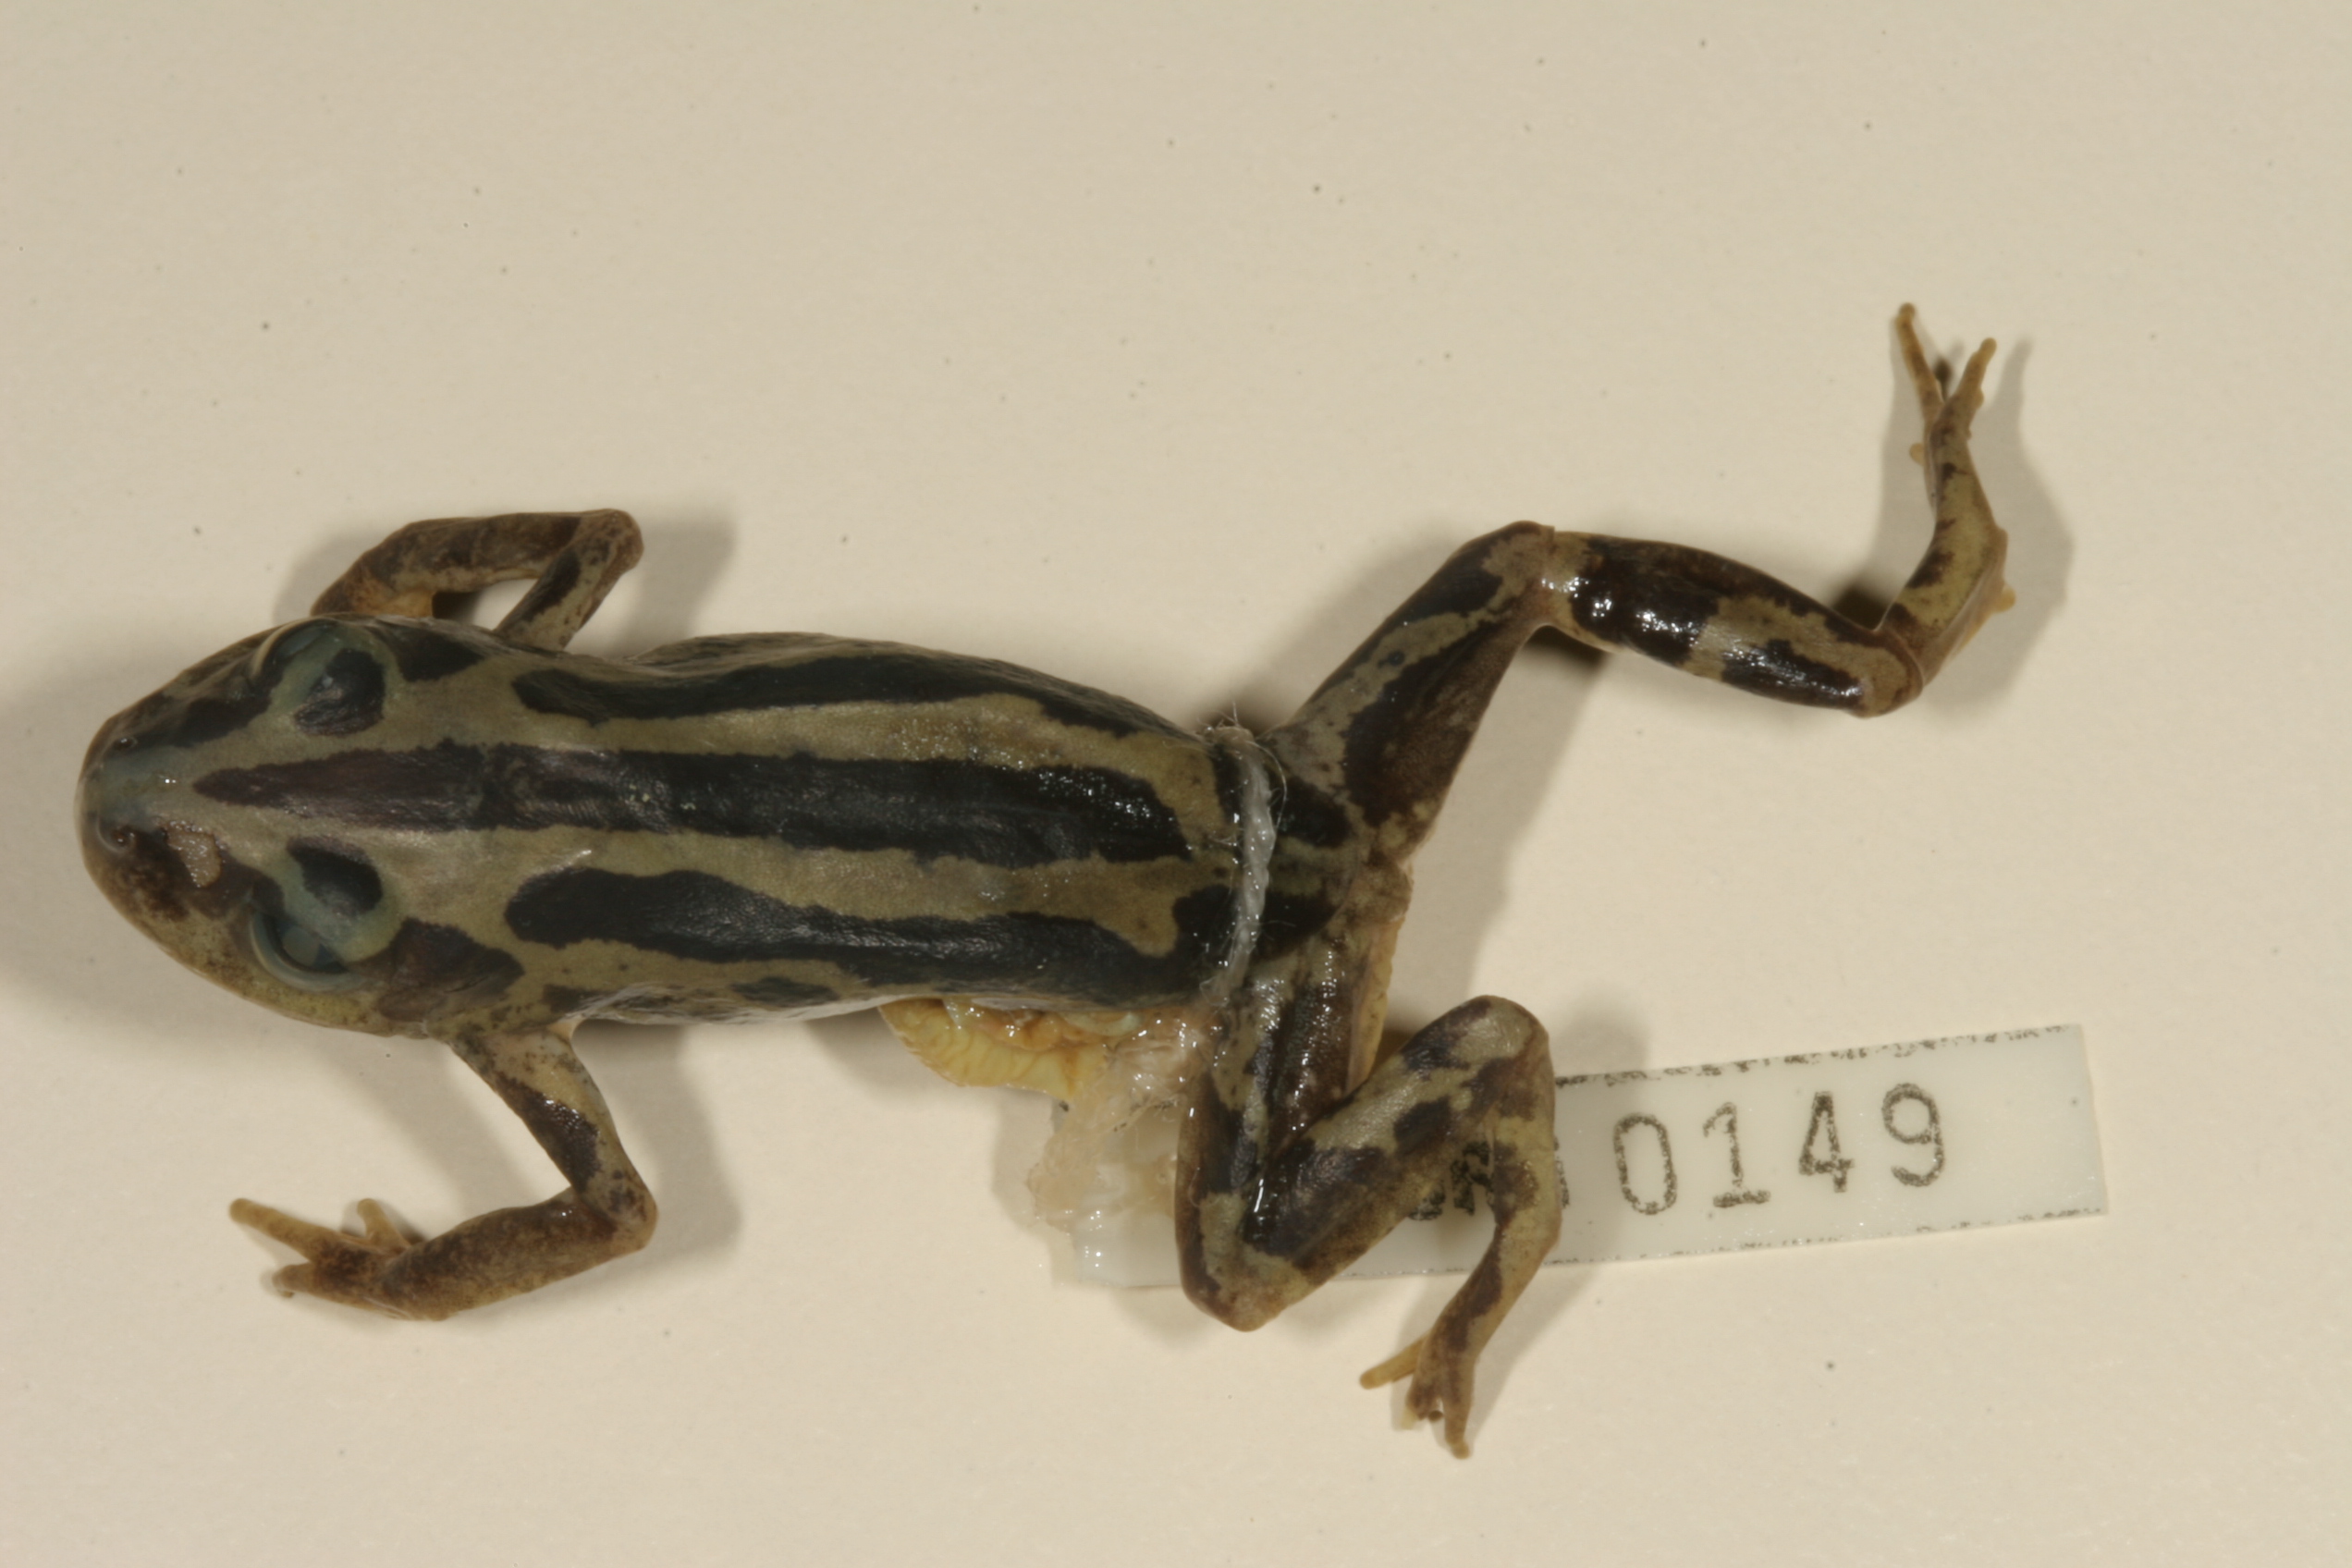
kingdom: Animalia
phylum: Chordata
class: Amphibia
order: Anura
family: Hyperoliidae
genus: Kassina
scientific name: Kassina senegalensis
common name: Senegal land frog
